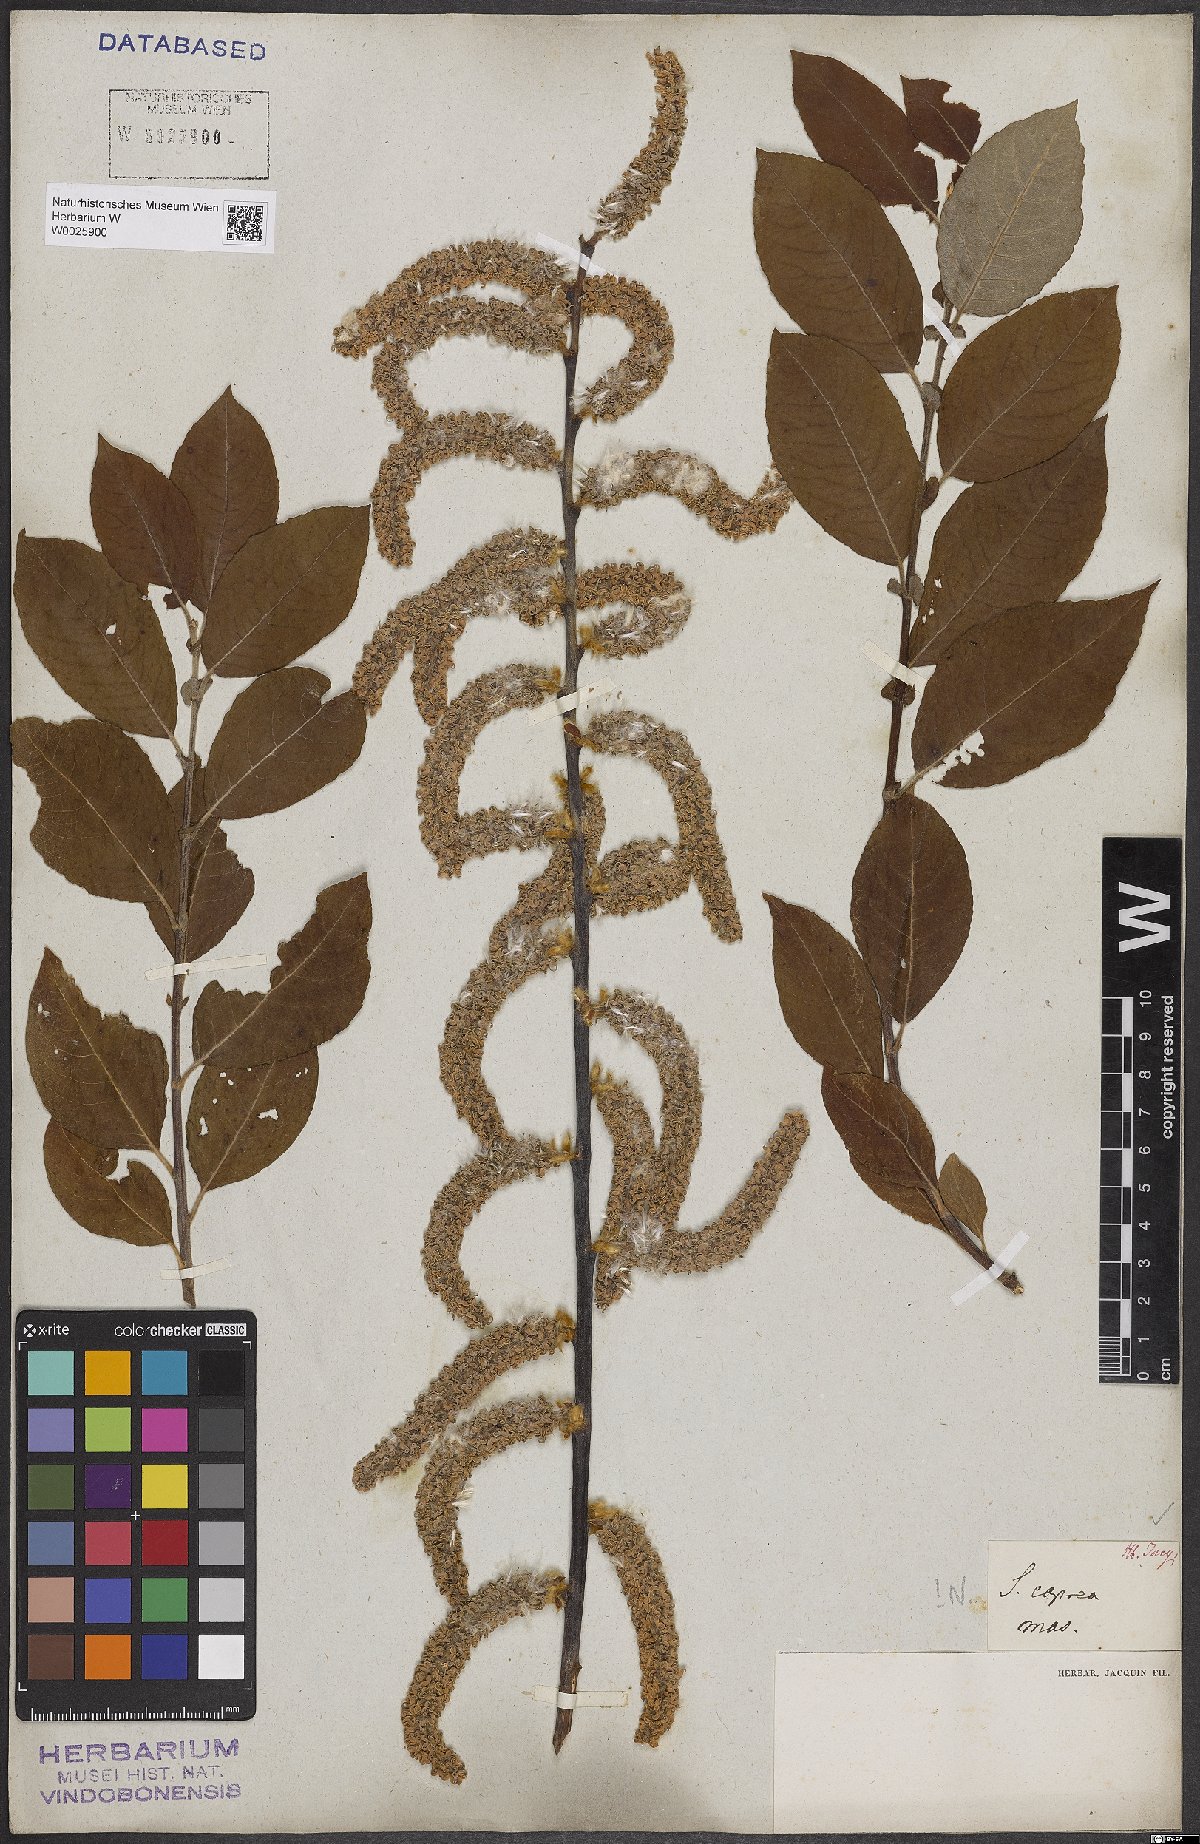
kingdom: Plantae
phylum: Tracheophyta
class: Magnoliopsida
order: Malpighiales
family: Salicaceae
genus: Salix
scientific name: Salix caprea
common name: Goat willow
